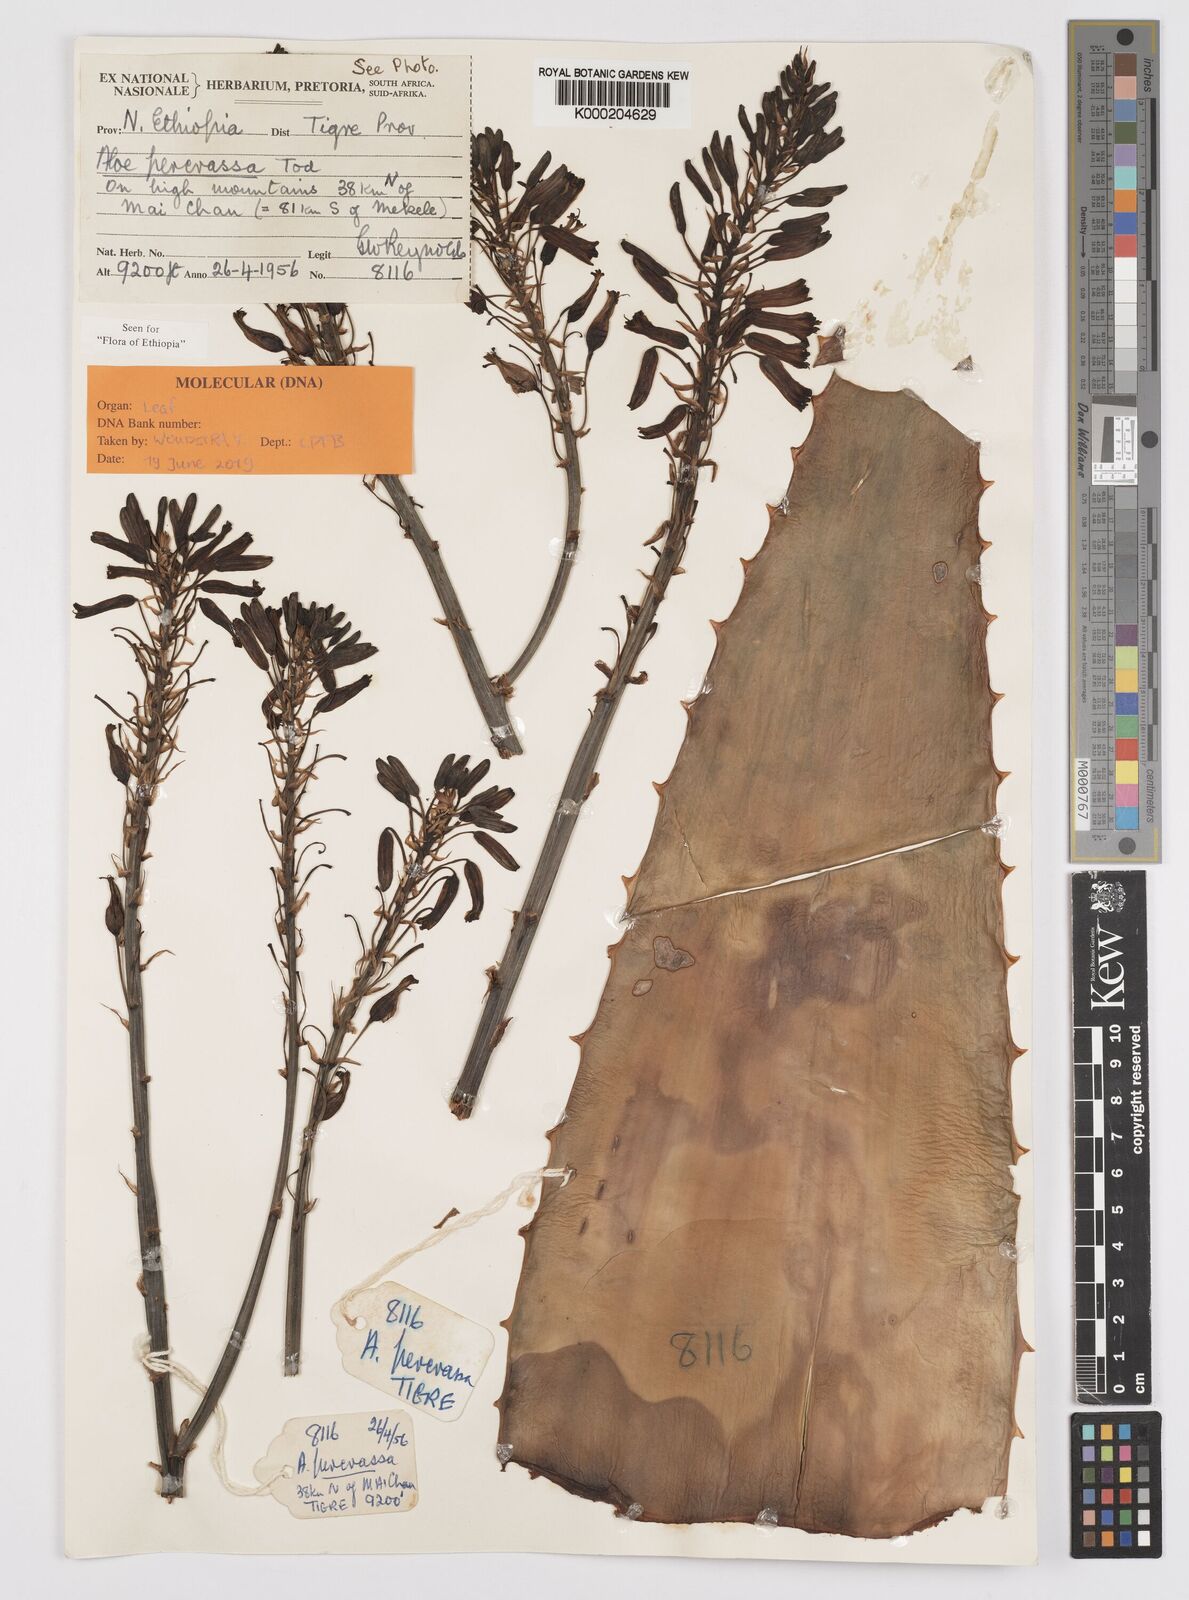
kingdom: Plantae
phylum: Tracheophyta
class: Liliopsida
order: Asparagales
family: Asphodelaceae
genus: Aloe
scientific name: Aloe percrassa
